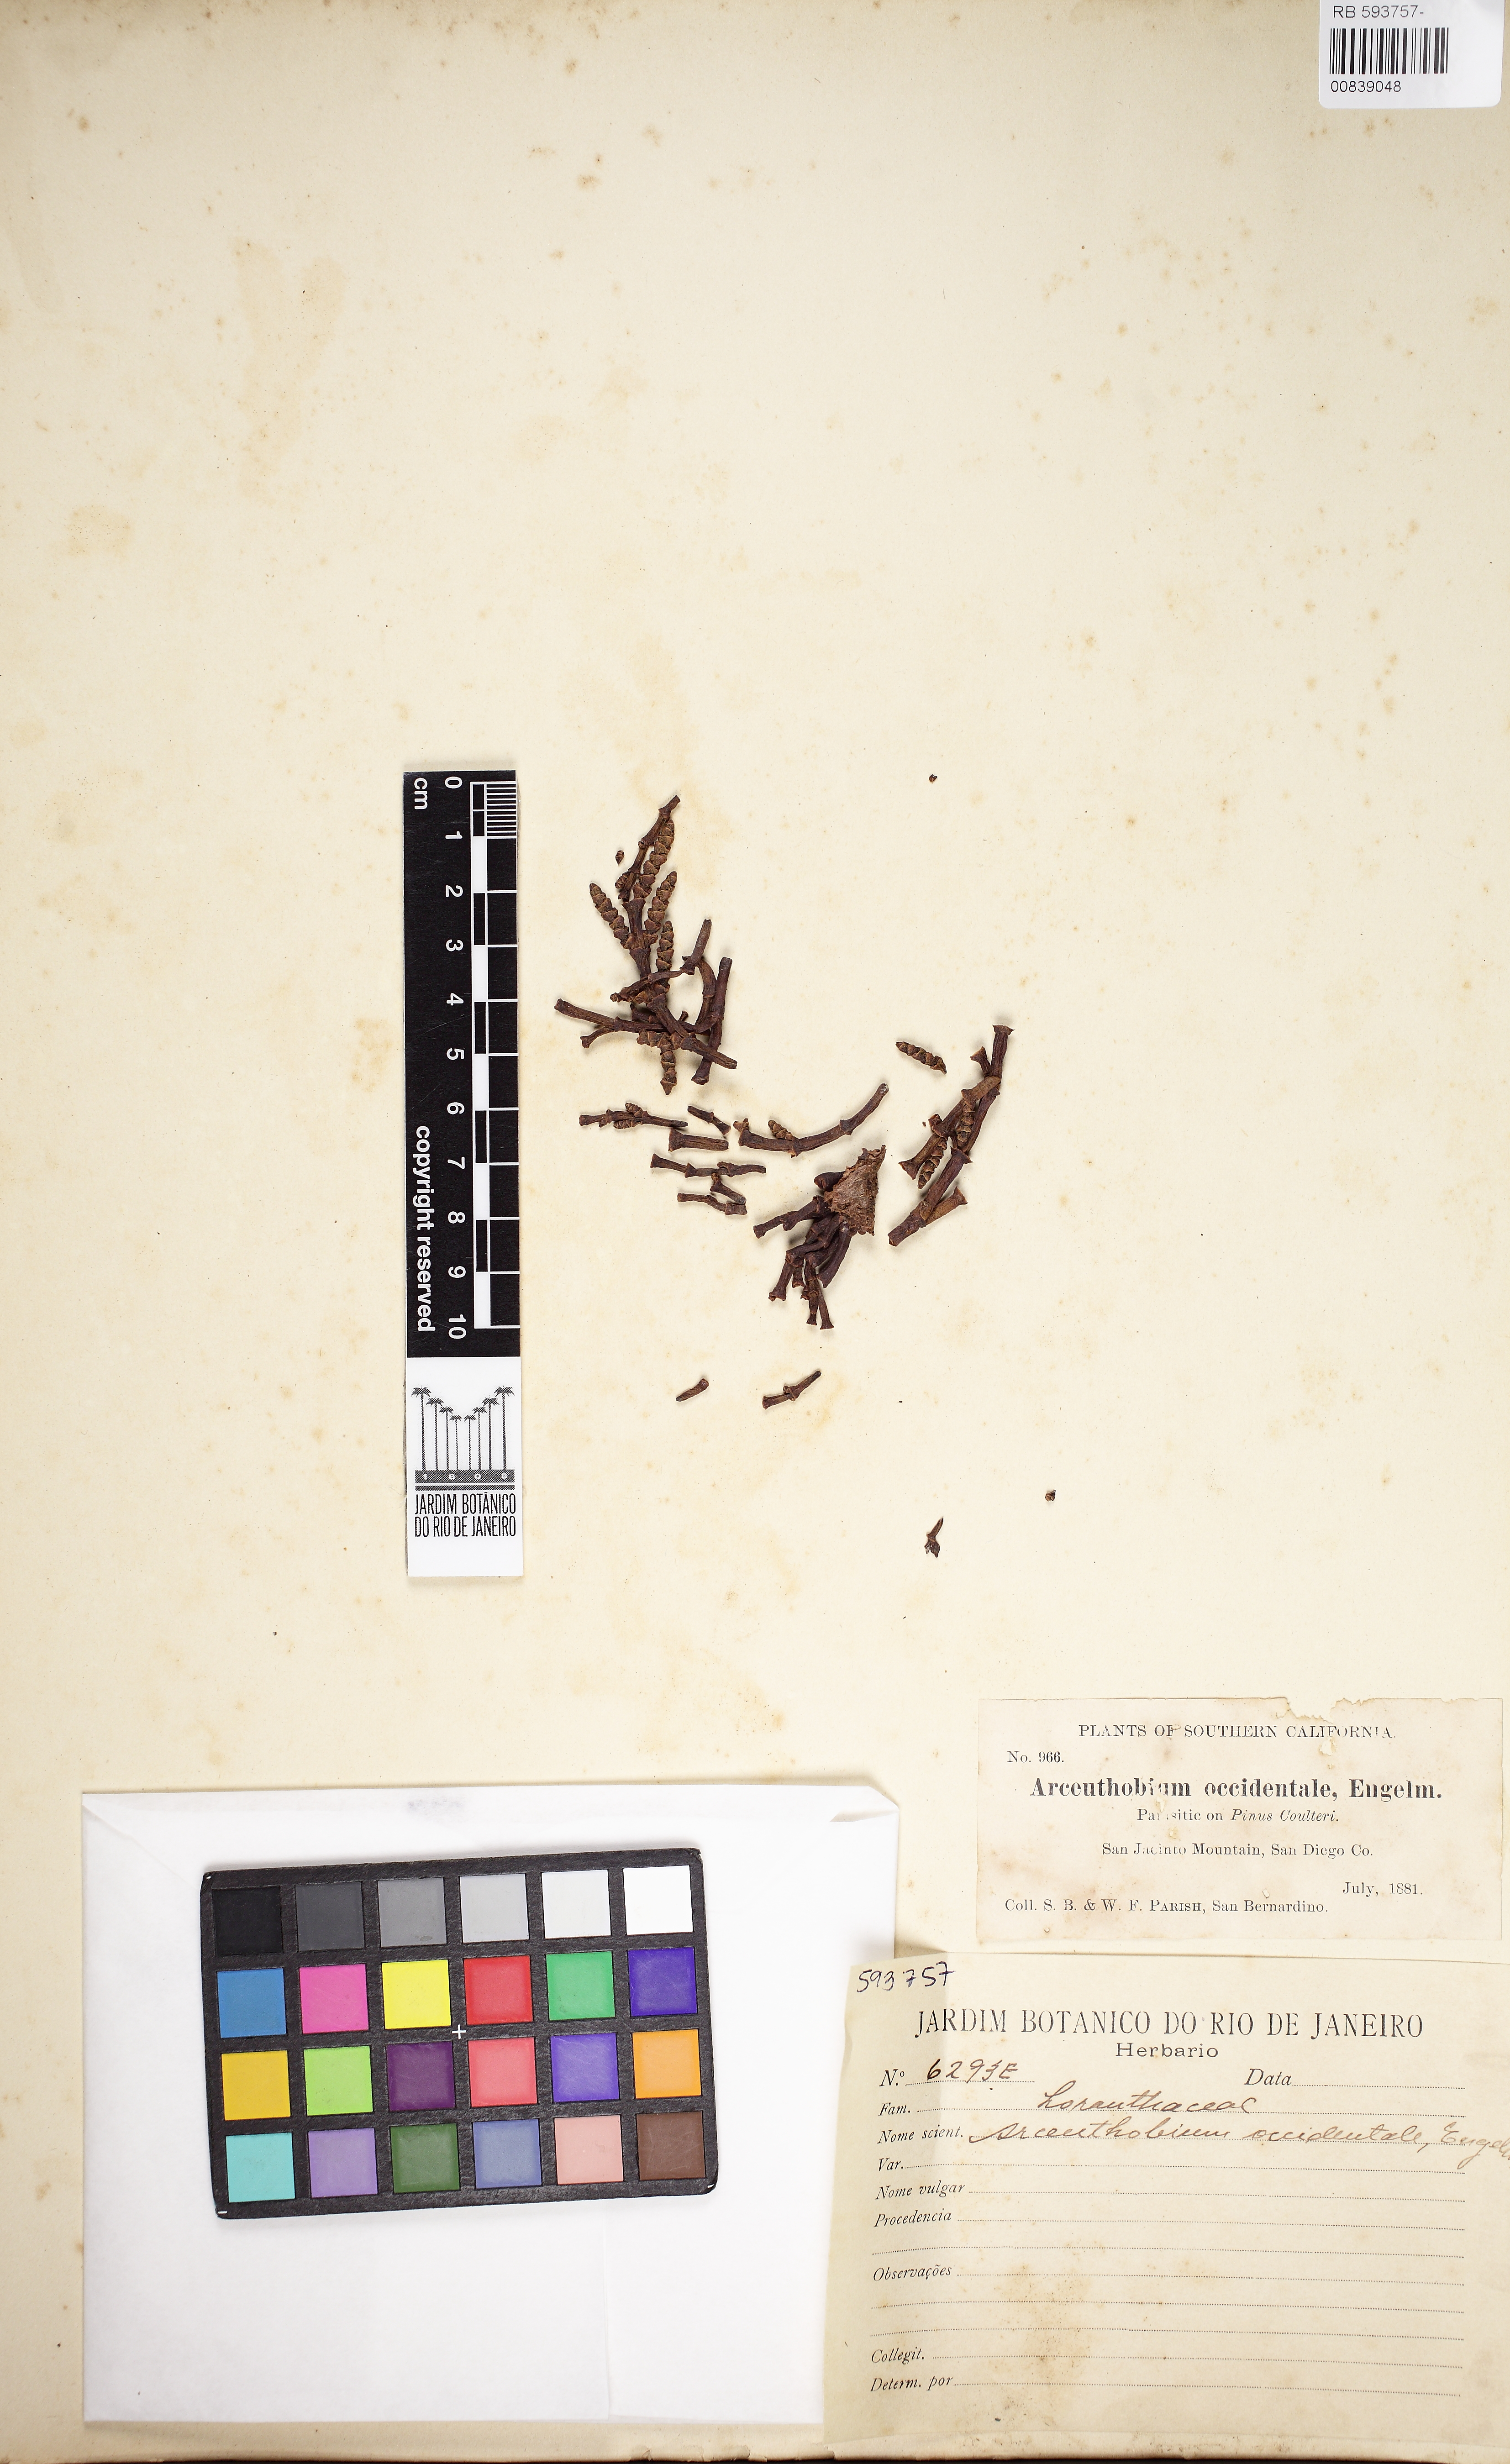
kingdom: Plantae
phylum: Tracheophyta
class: Magnoliopsida
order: Santalales
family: Viscaceae
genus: Arceuthobium
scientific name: Arceuthobium campylopodum
